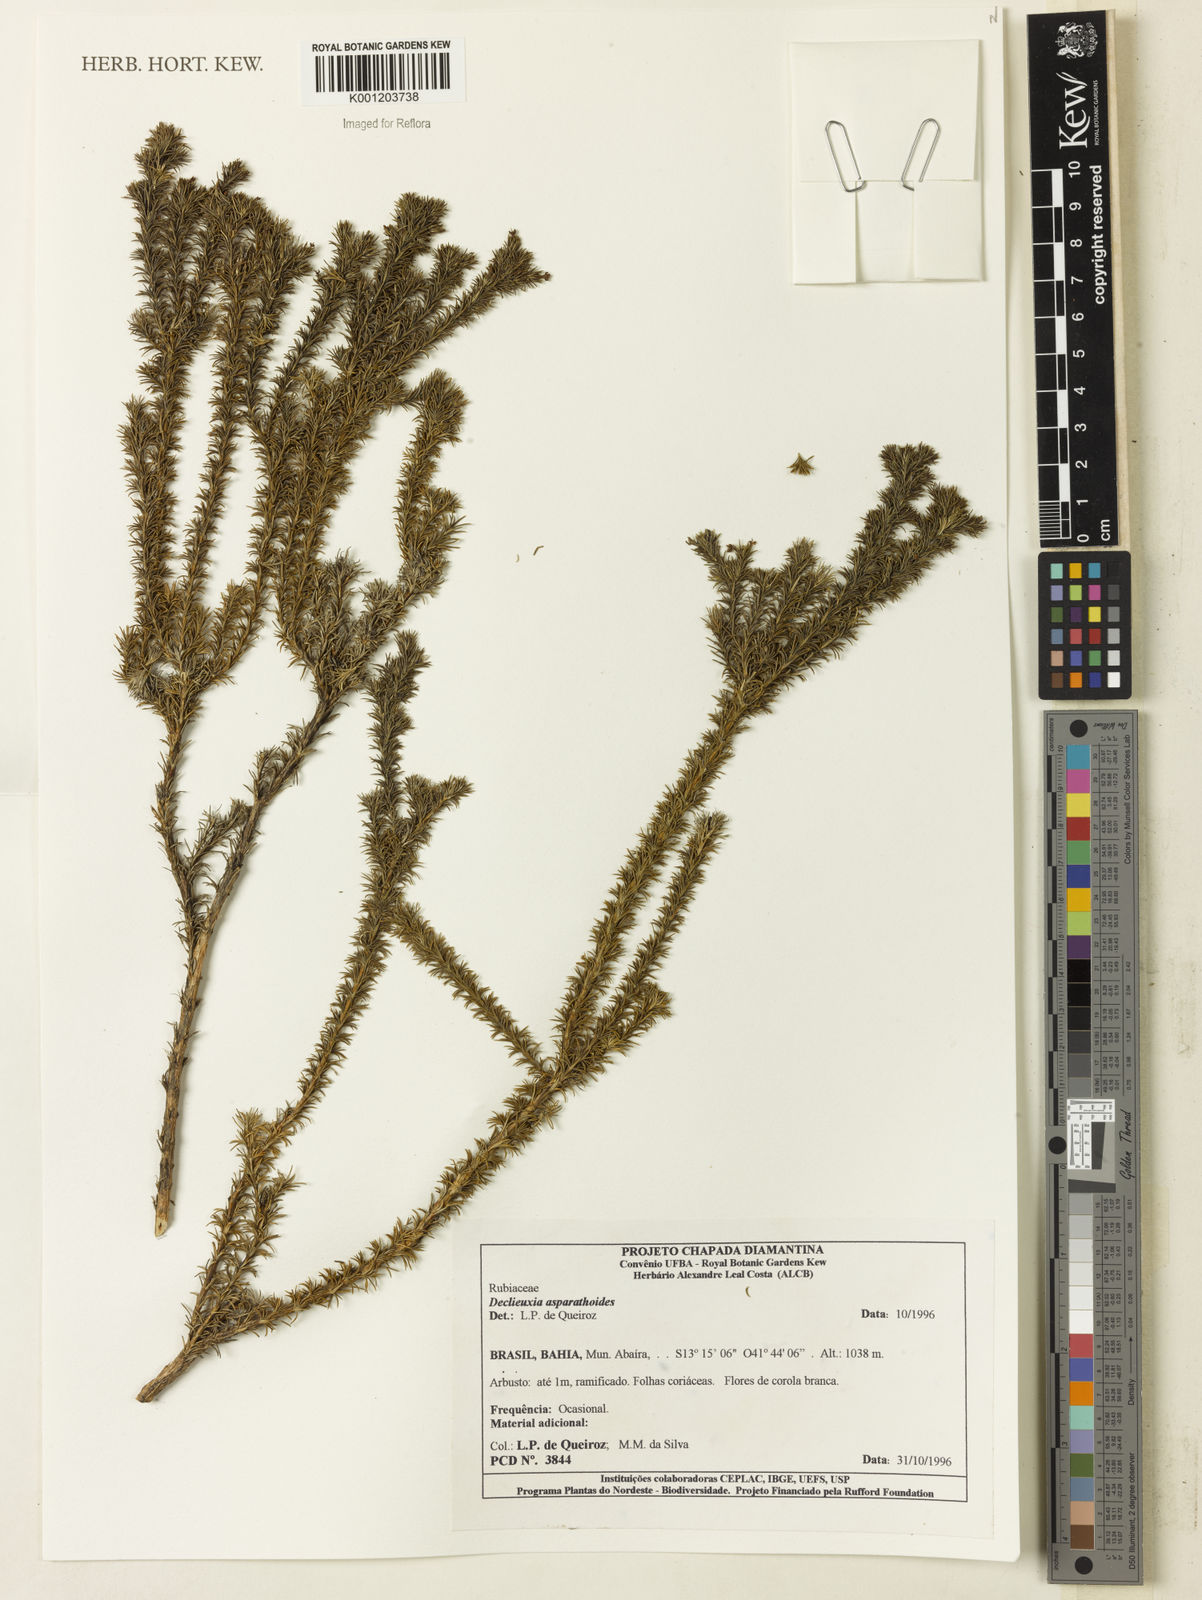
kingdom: Plantae
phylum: Tracheophyta
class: Magnoliopsida
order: Gentianales
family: Rubiaceae
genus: Declieuxia
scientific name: Declieuxia
